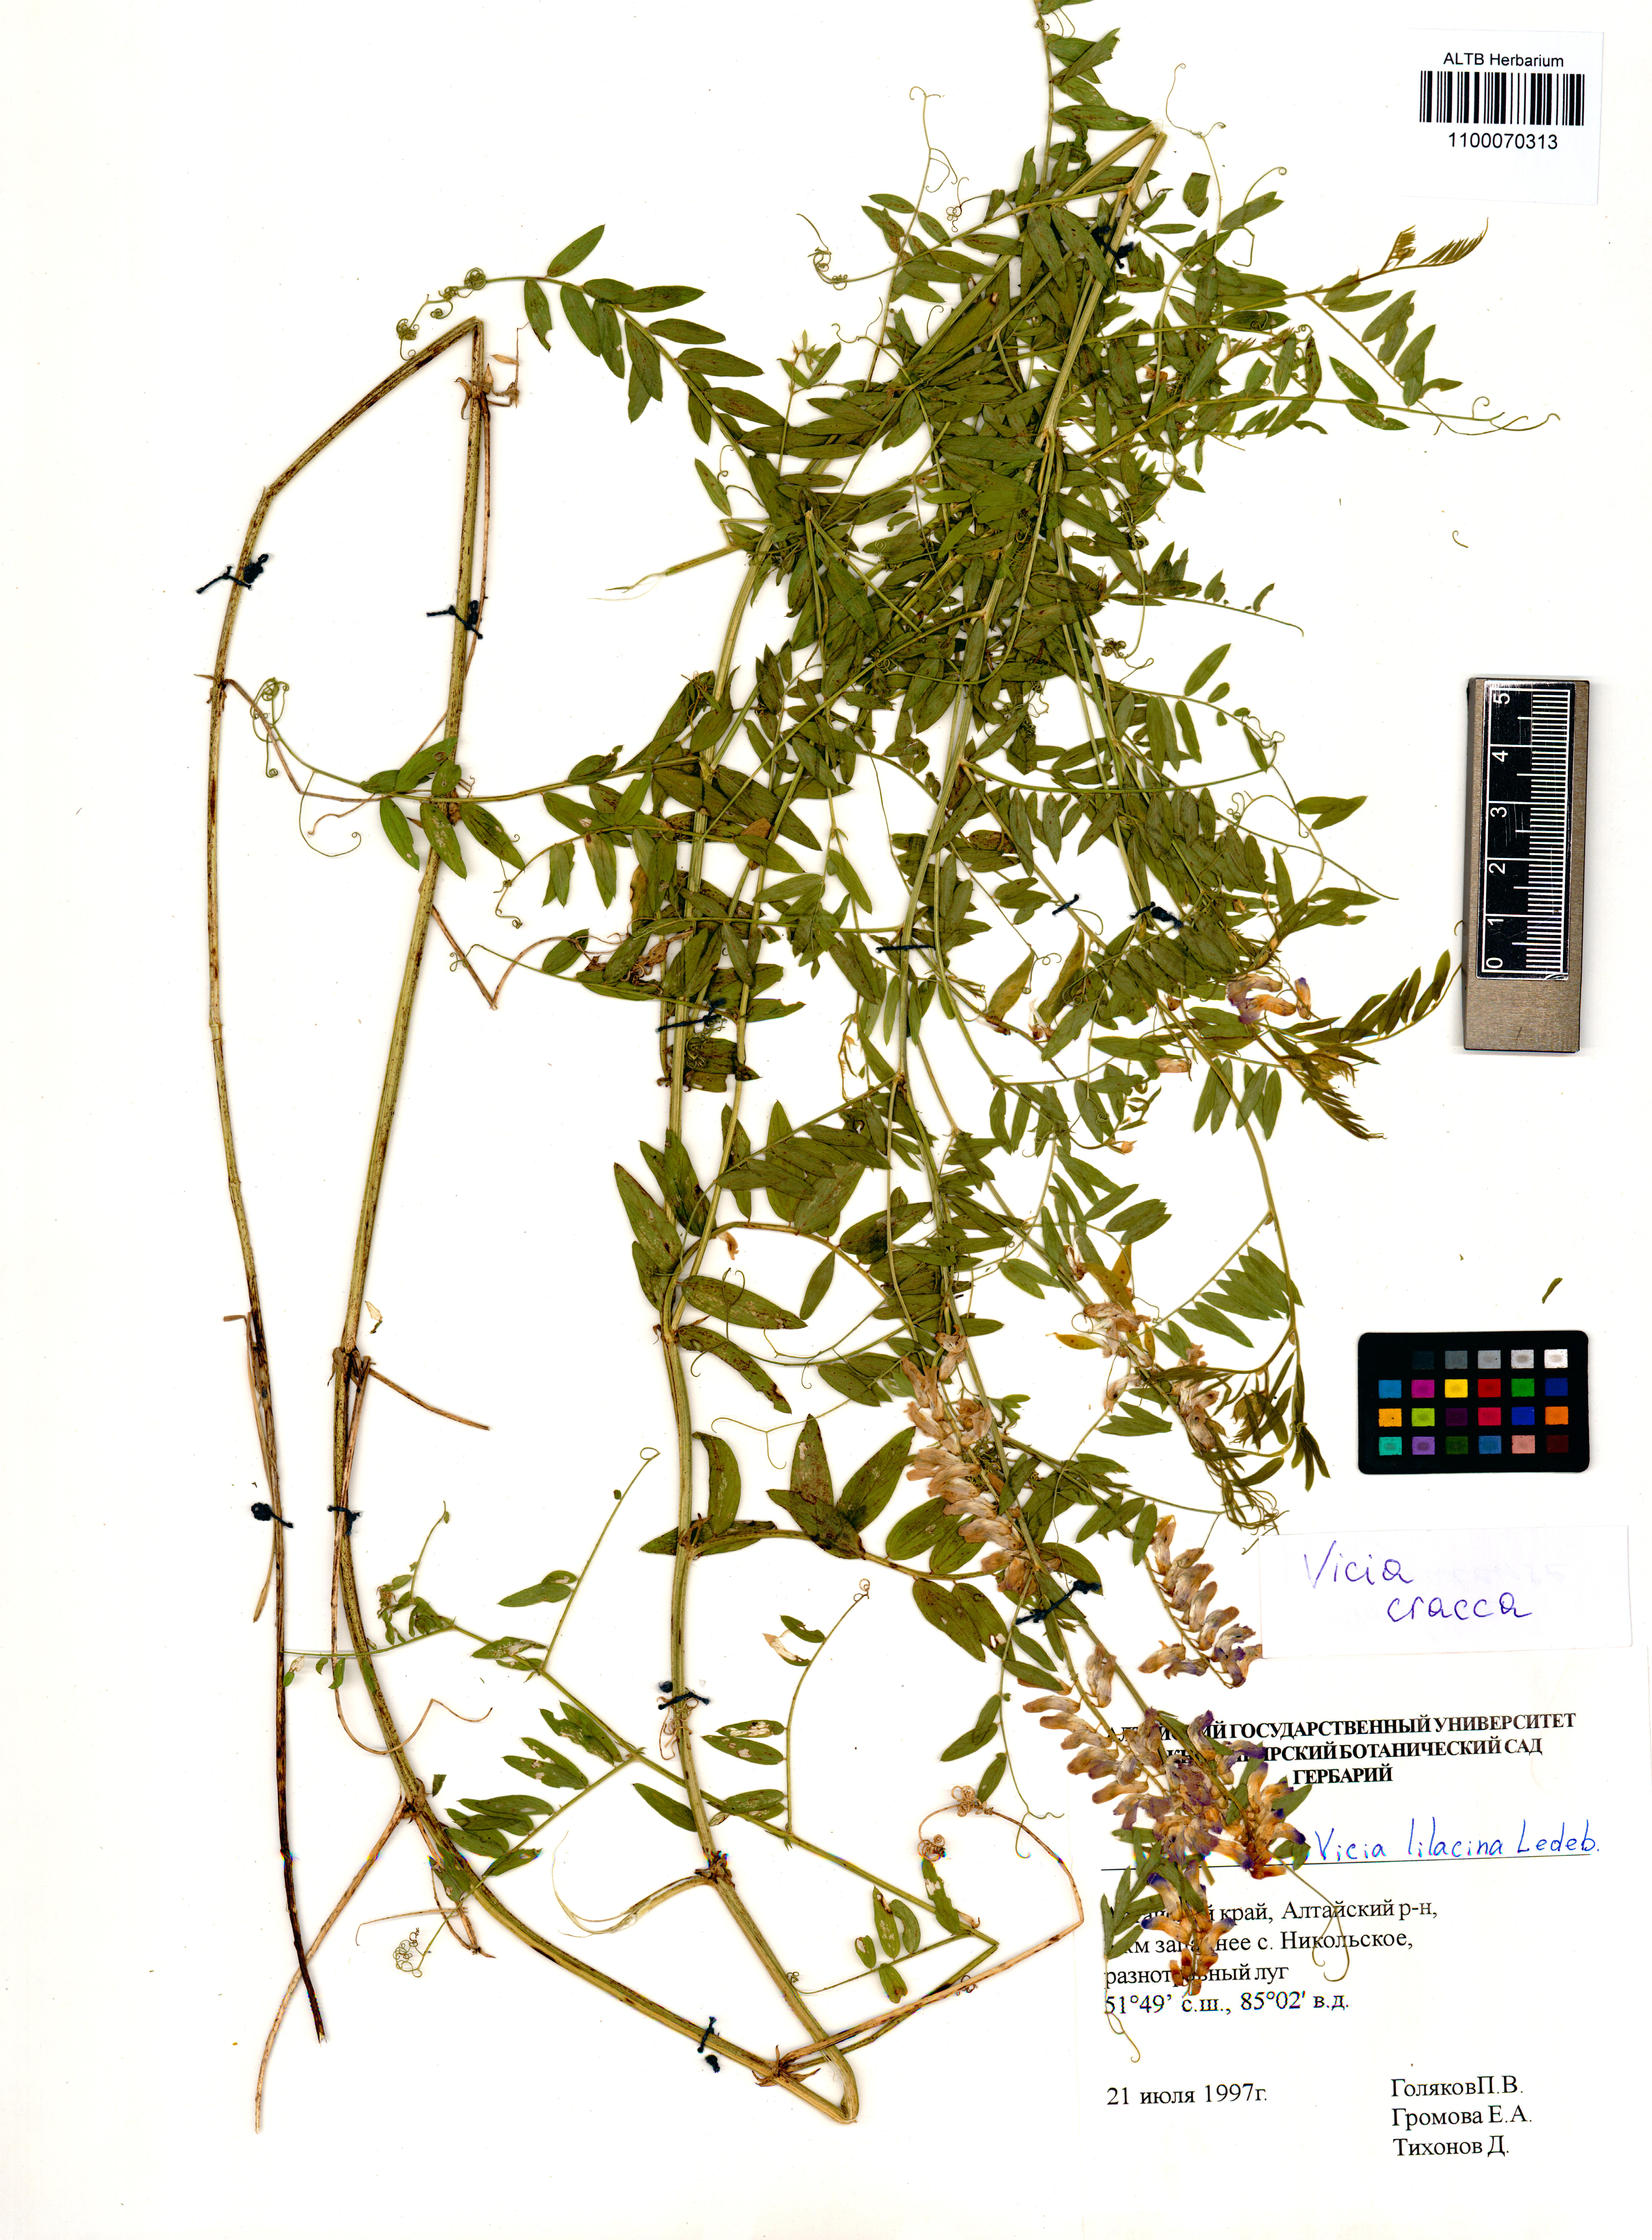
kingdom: Plantae
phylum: Tracheophyta
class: Magnoliopsida
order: Fabales
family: Fabaceae
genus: Vicia
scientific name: Vicia cracca
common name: Bird vetch
